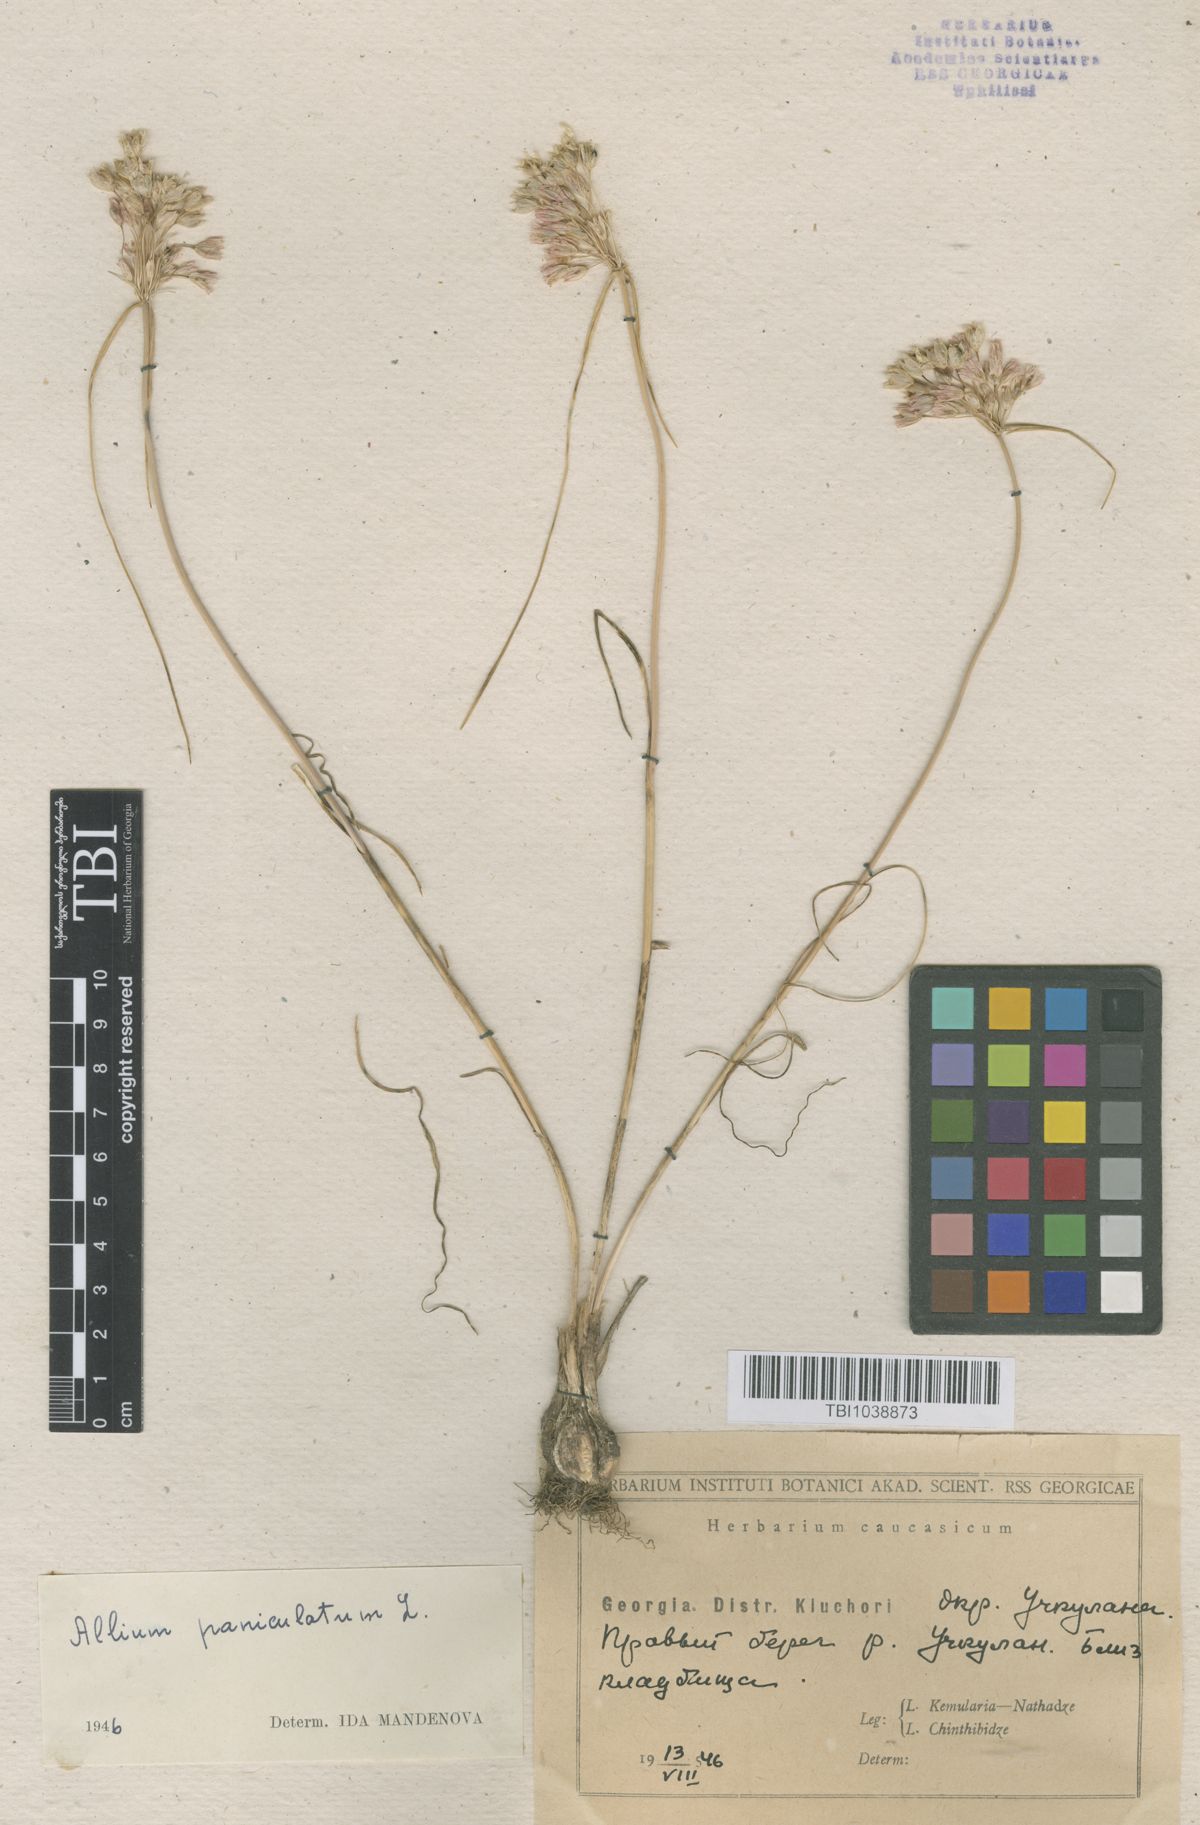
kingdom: Plantae
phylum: Tracheophyta
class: Liliopsida
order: Asparagales
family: Amaryllidaceae
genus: Allium
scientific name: Allium paniculatum
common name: Pale garlic
